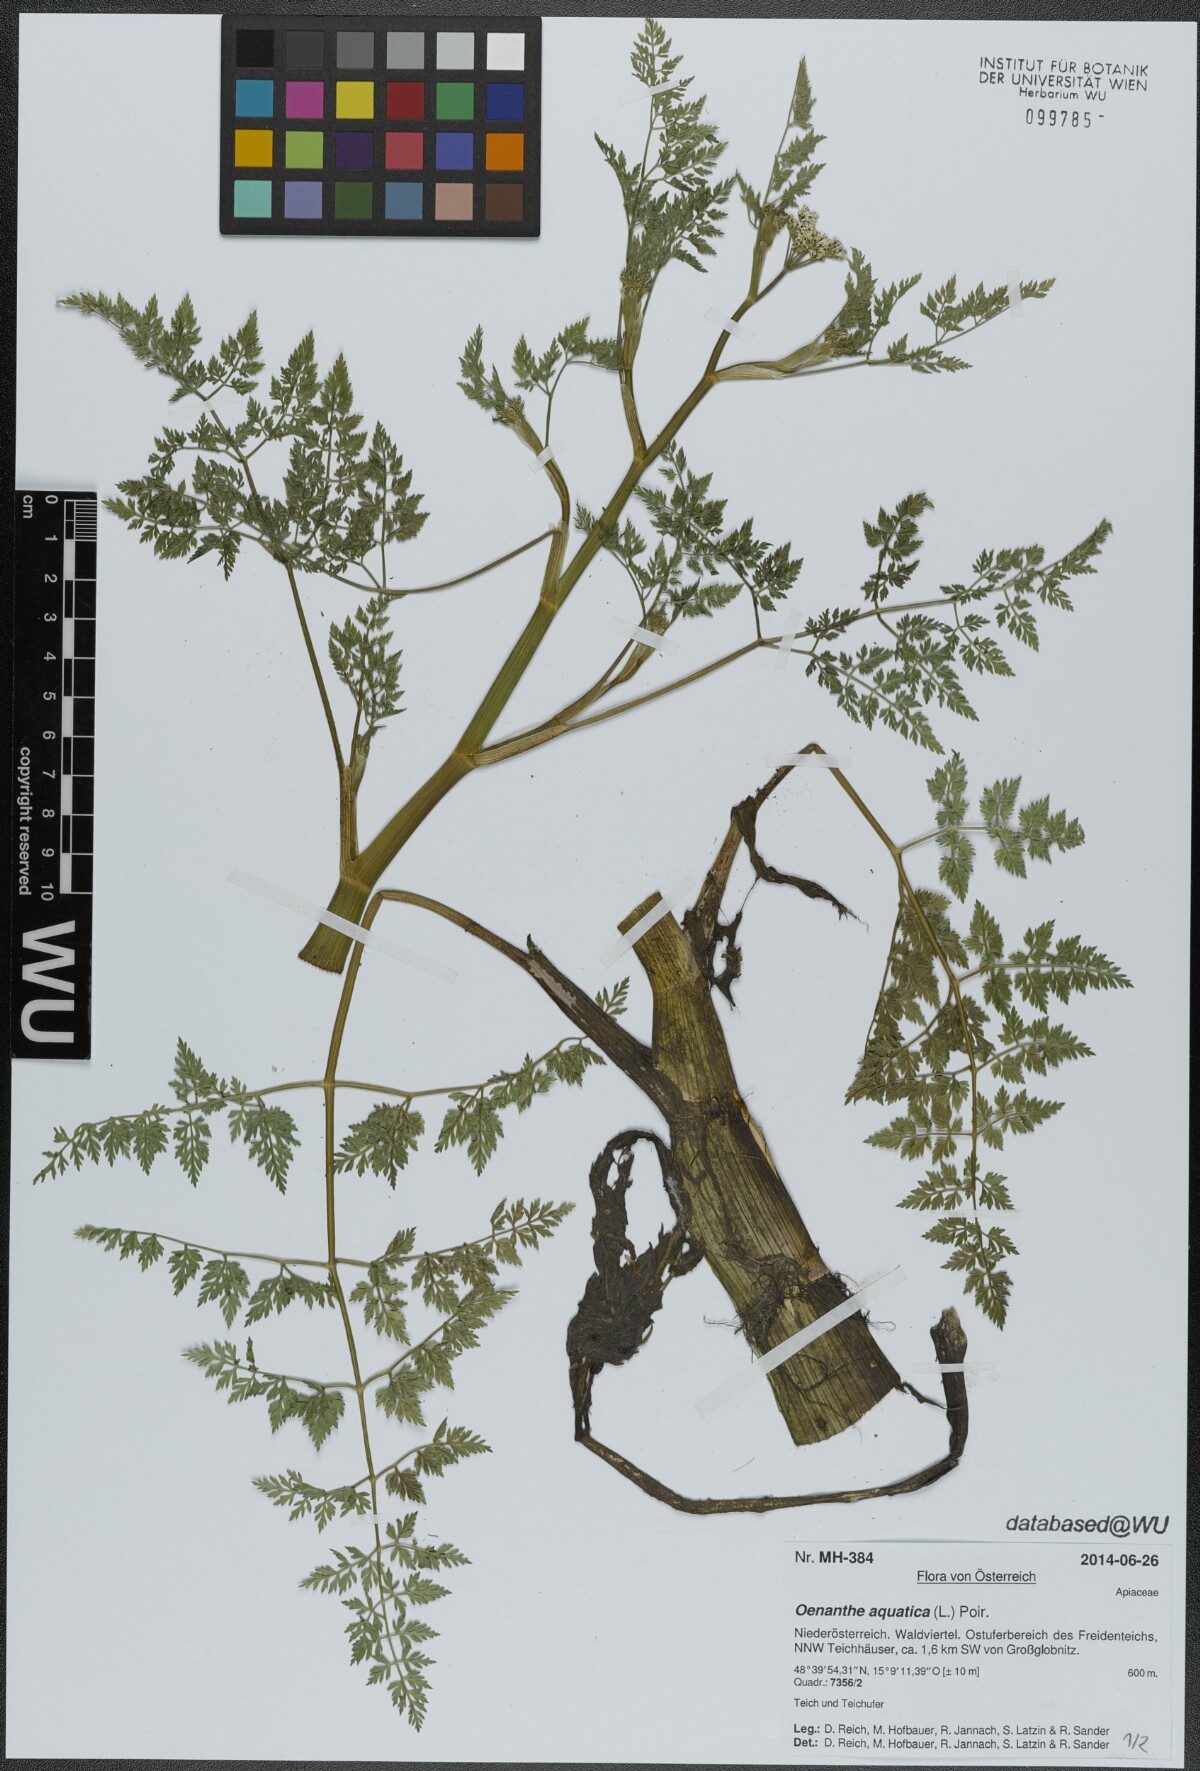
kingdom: Plantae
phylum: Tracheophyta
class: Magnoliopsida
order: Apiales
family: Apiaceae
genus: Oenanthe
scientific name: Oenanthe aquatica
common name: Fine-leaved water-dropwort
